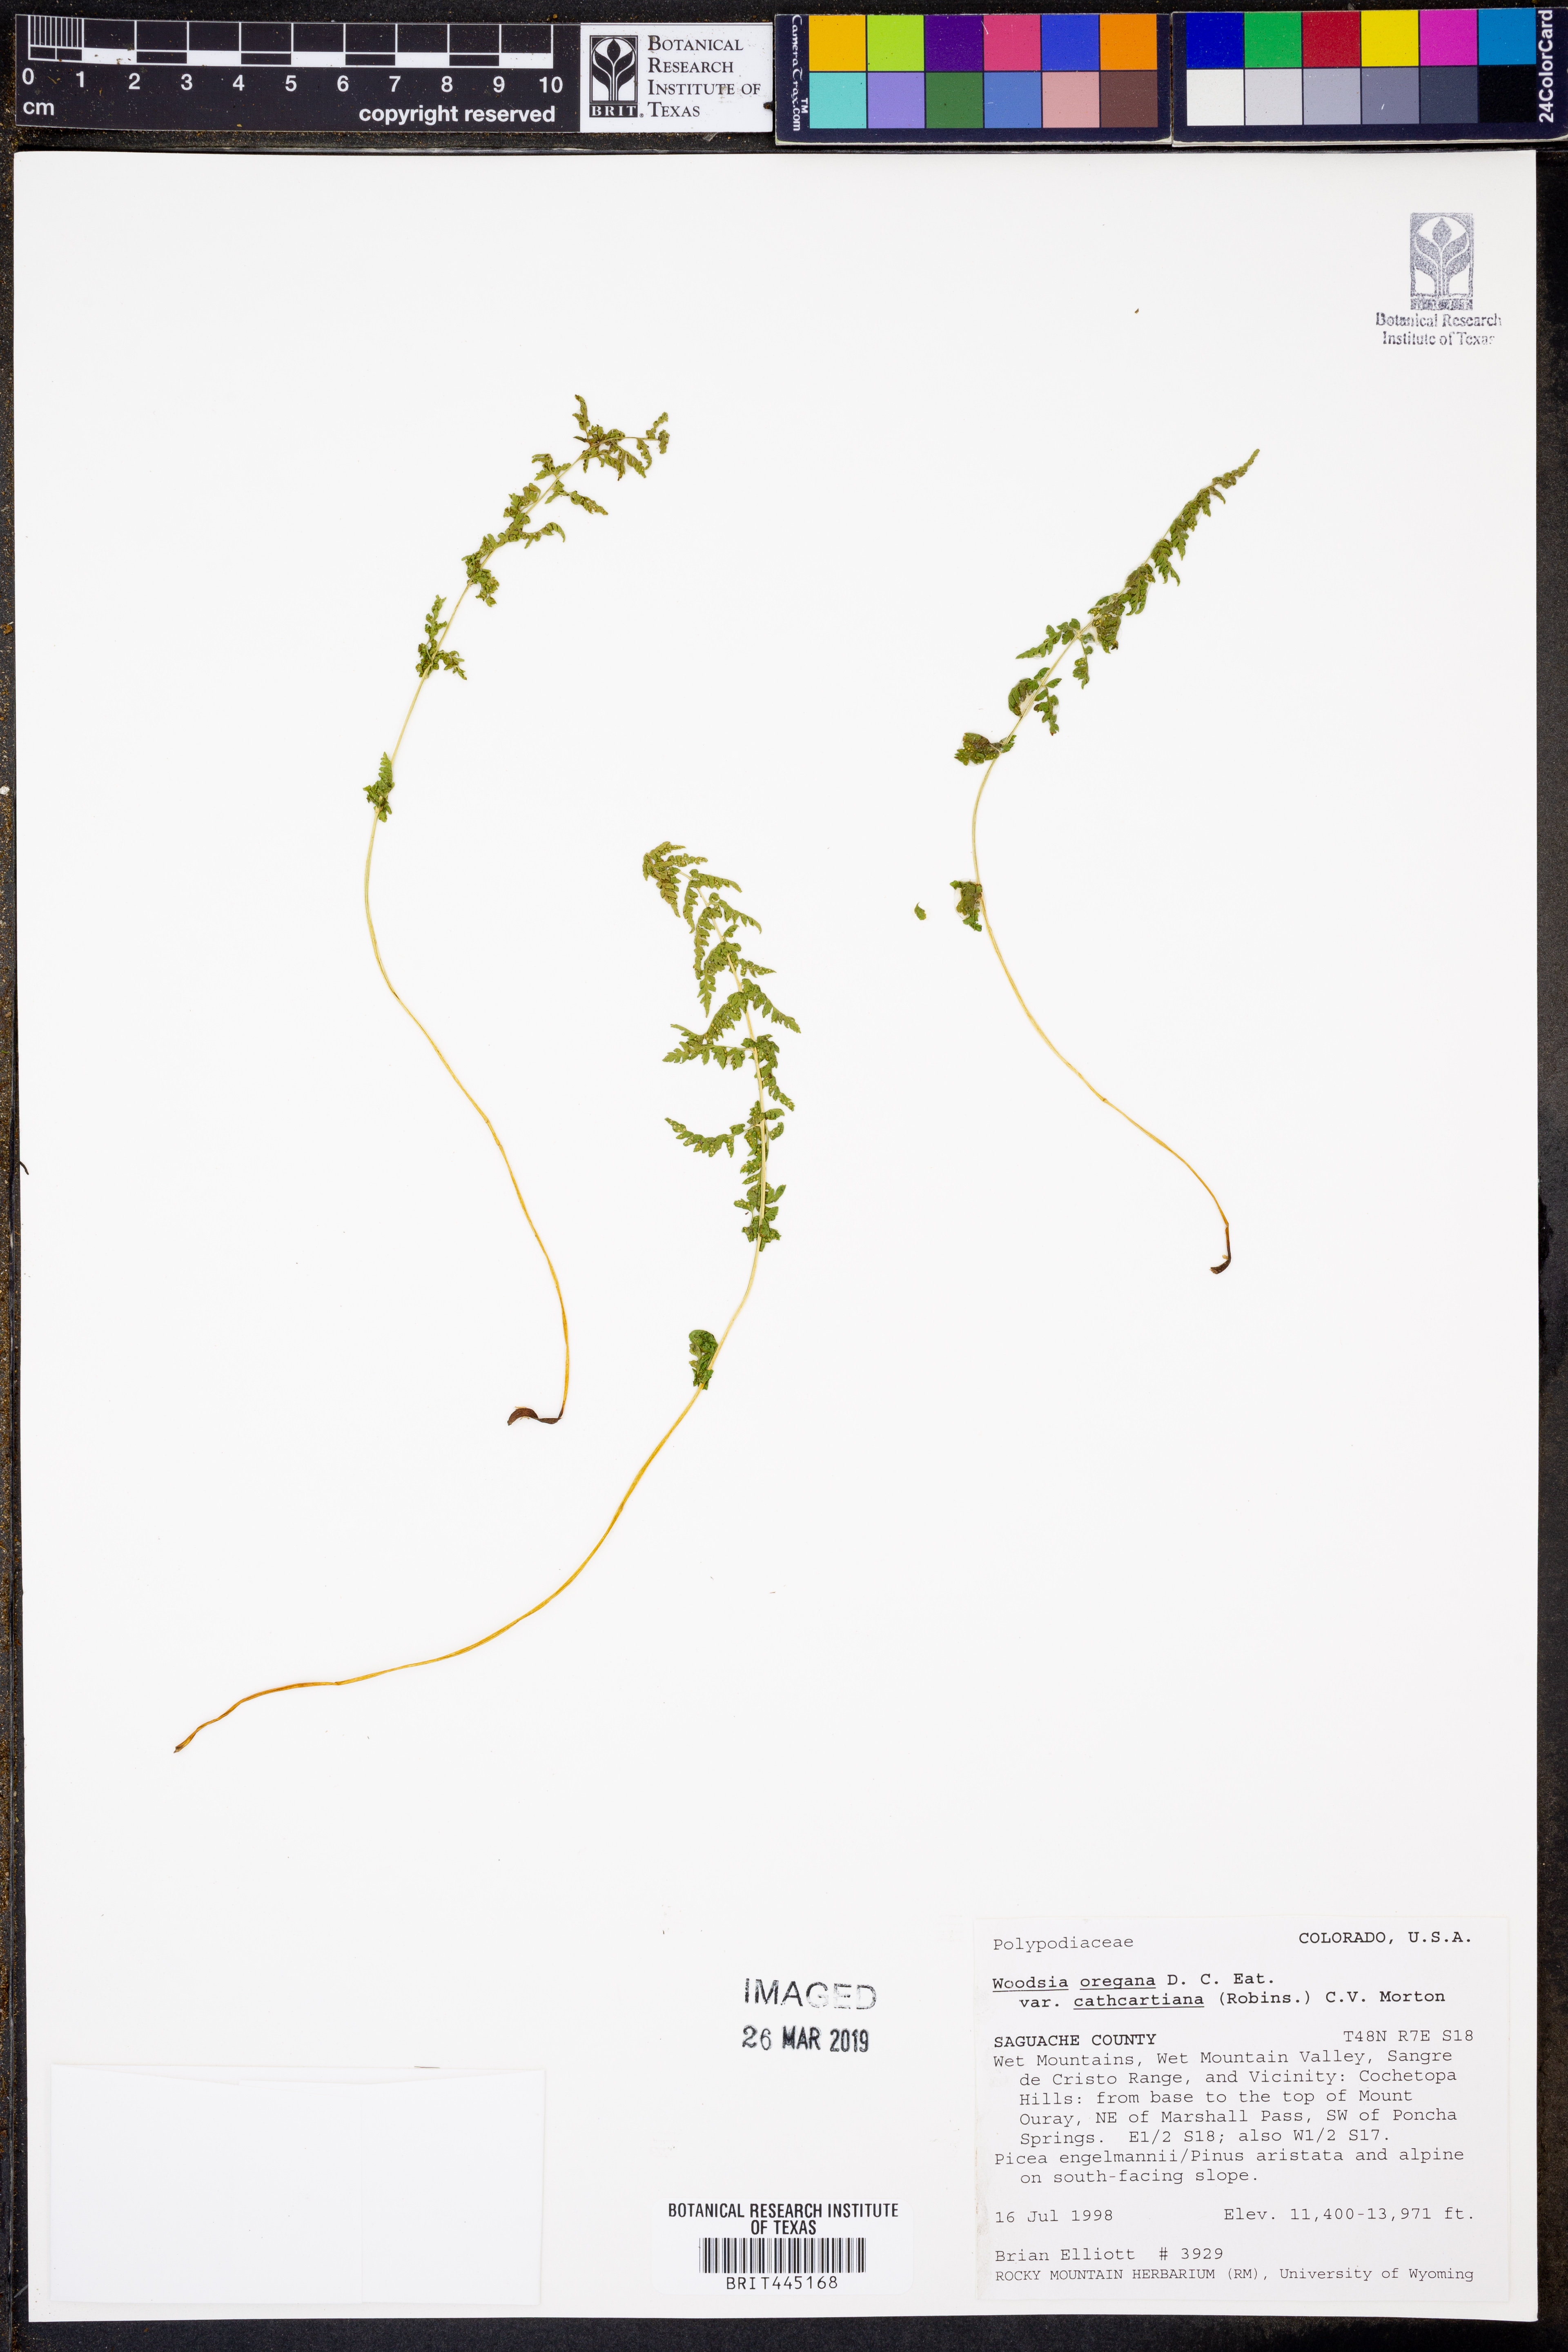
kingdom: Plantae
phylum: Tracheophyta
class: Polypodiopsida
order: Polypodiales
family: Woodsiaceae
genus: Physematium
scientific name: Physematium oreganum
